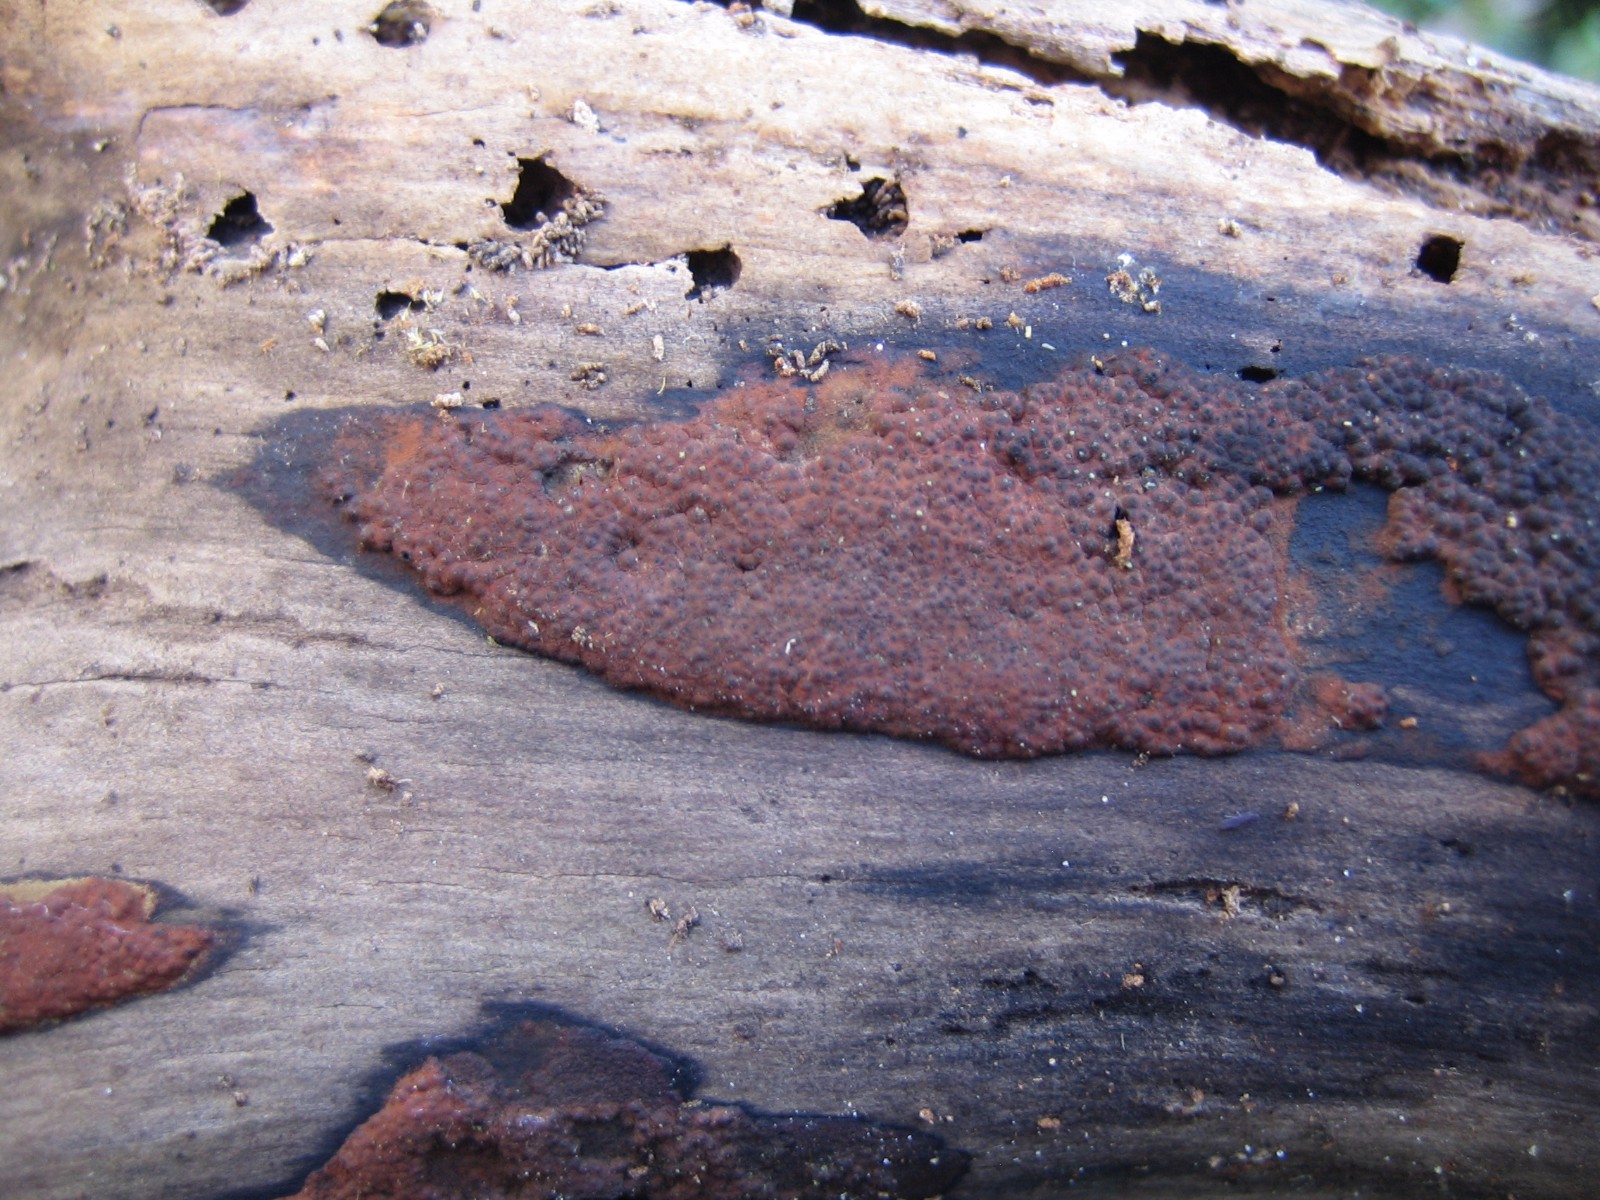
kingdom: Fungi
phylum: Ascomycota
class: Sordariomycetes
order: Xylariales
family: Hypoxylaceae
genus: Hypoxylon
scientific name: Hypoxylon rubiginosum
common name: rustfarvet kulbær
